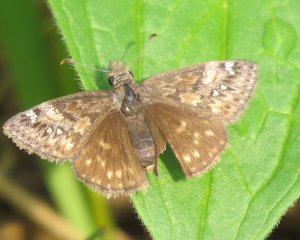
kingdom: Animalia
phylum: Arthropoda
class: Insecta
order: Lepidoptera
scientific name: Lepidoptera
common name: Butterflies
